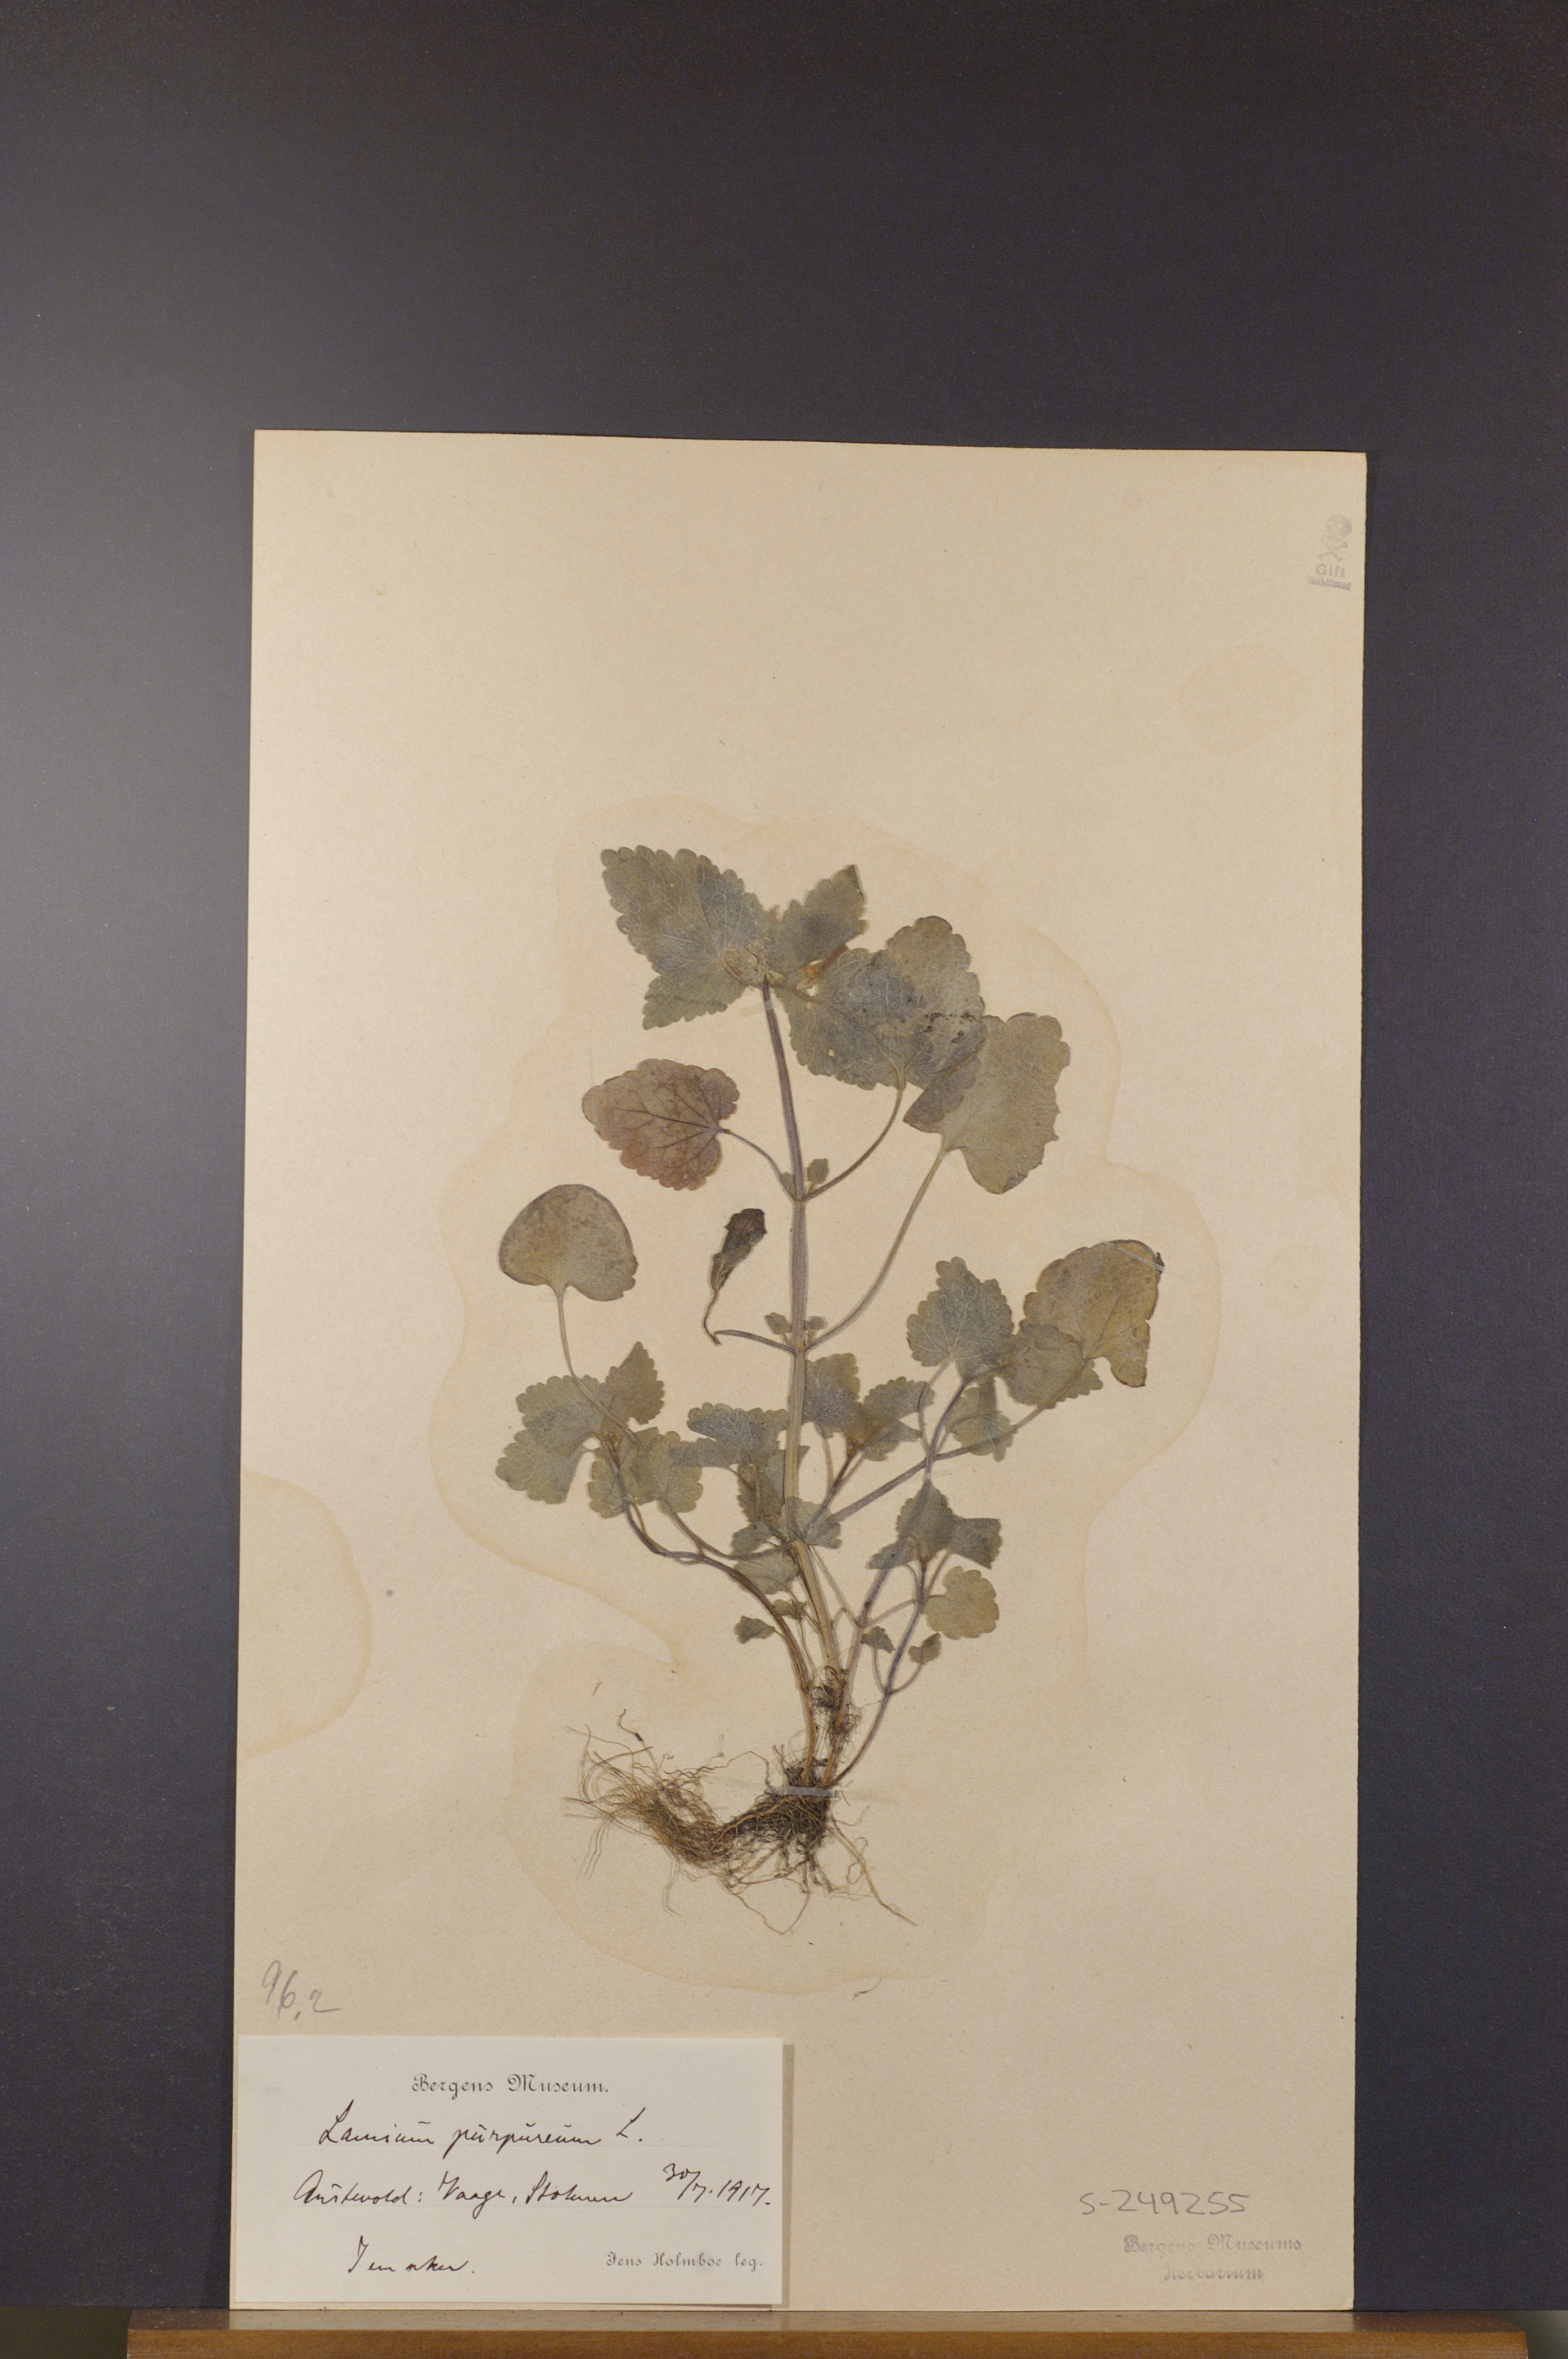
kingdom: Plantae
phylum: Tracheophyta
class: Magnoliopsida
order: Lamiales
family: Lamiaceae
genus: Lamium
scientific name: Lamium purpureum
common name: Red dead-nettle
